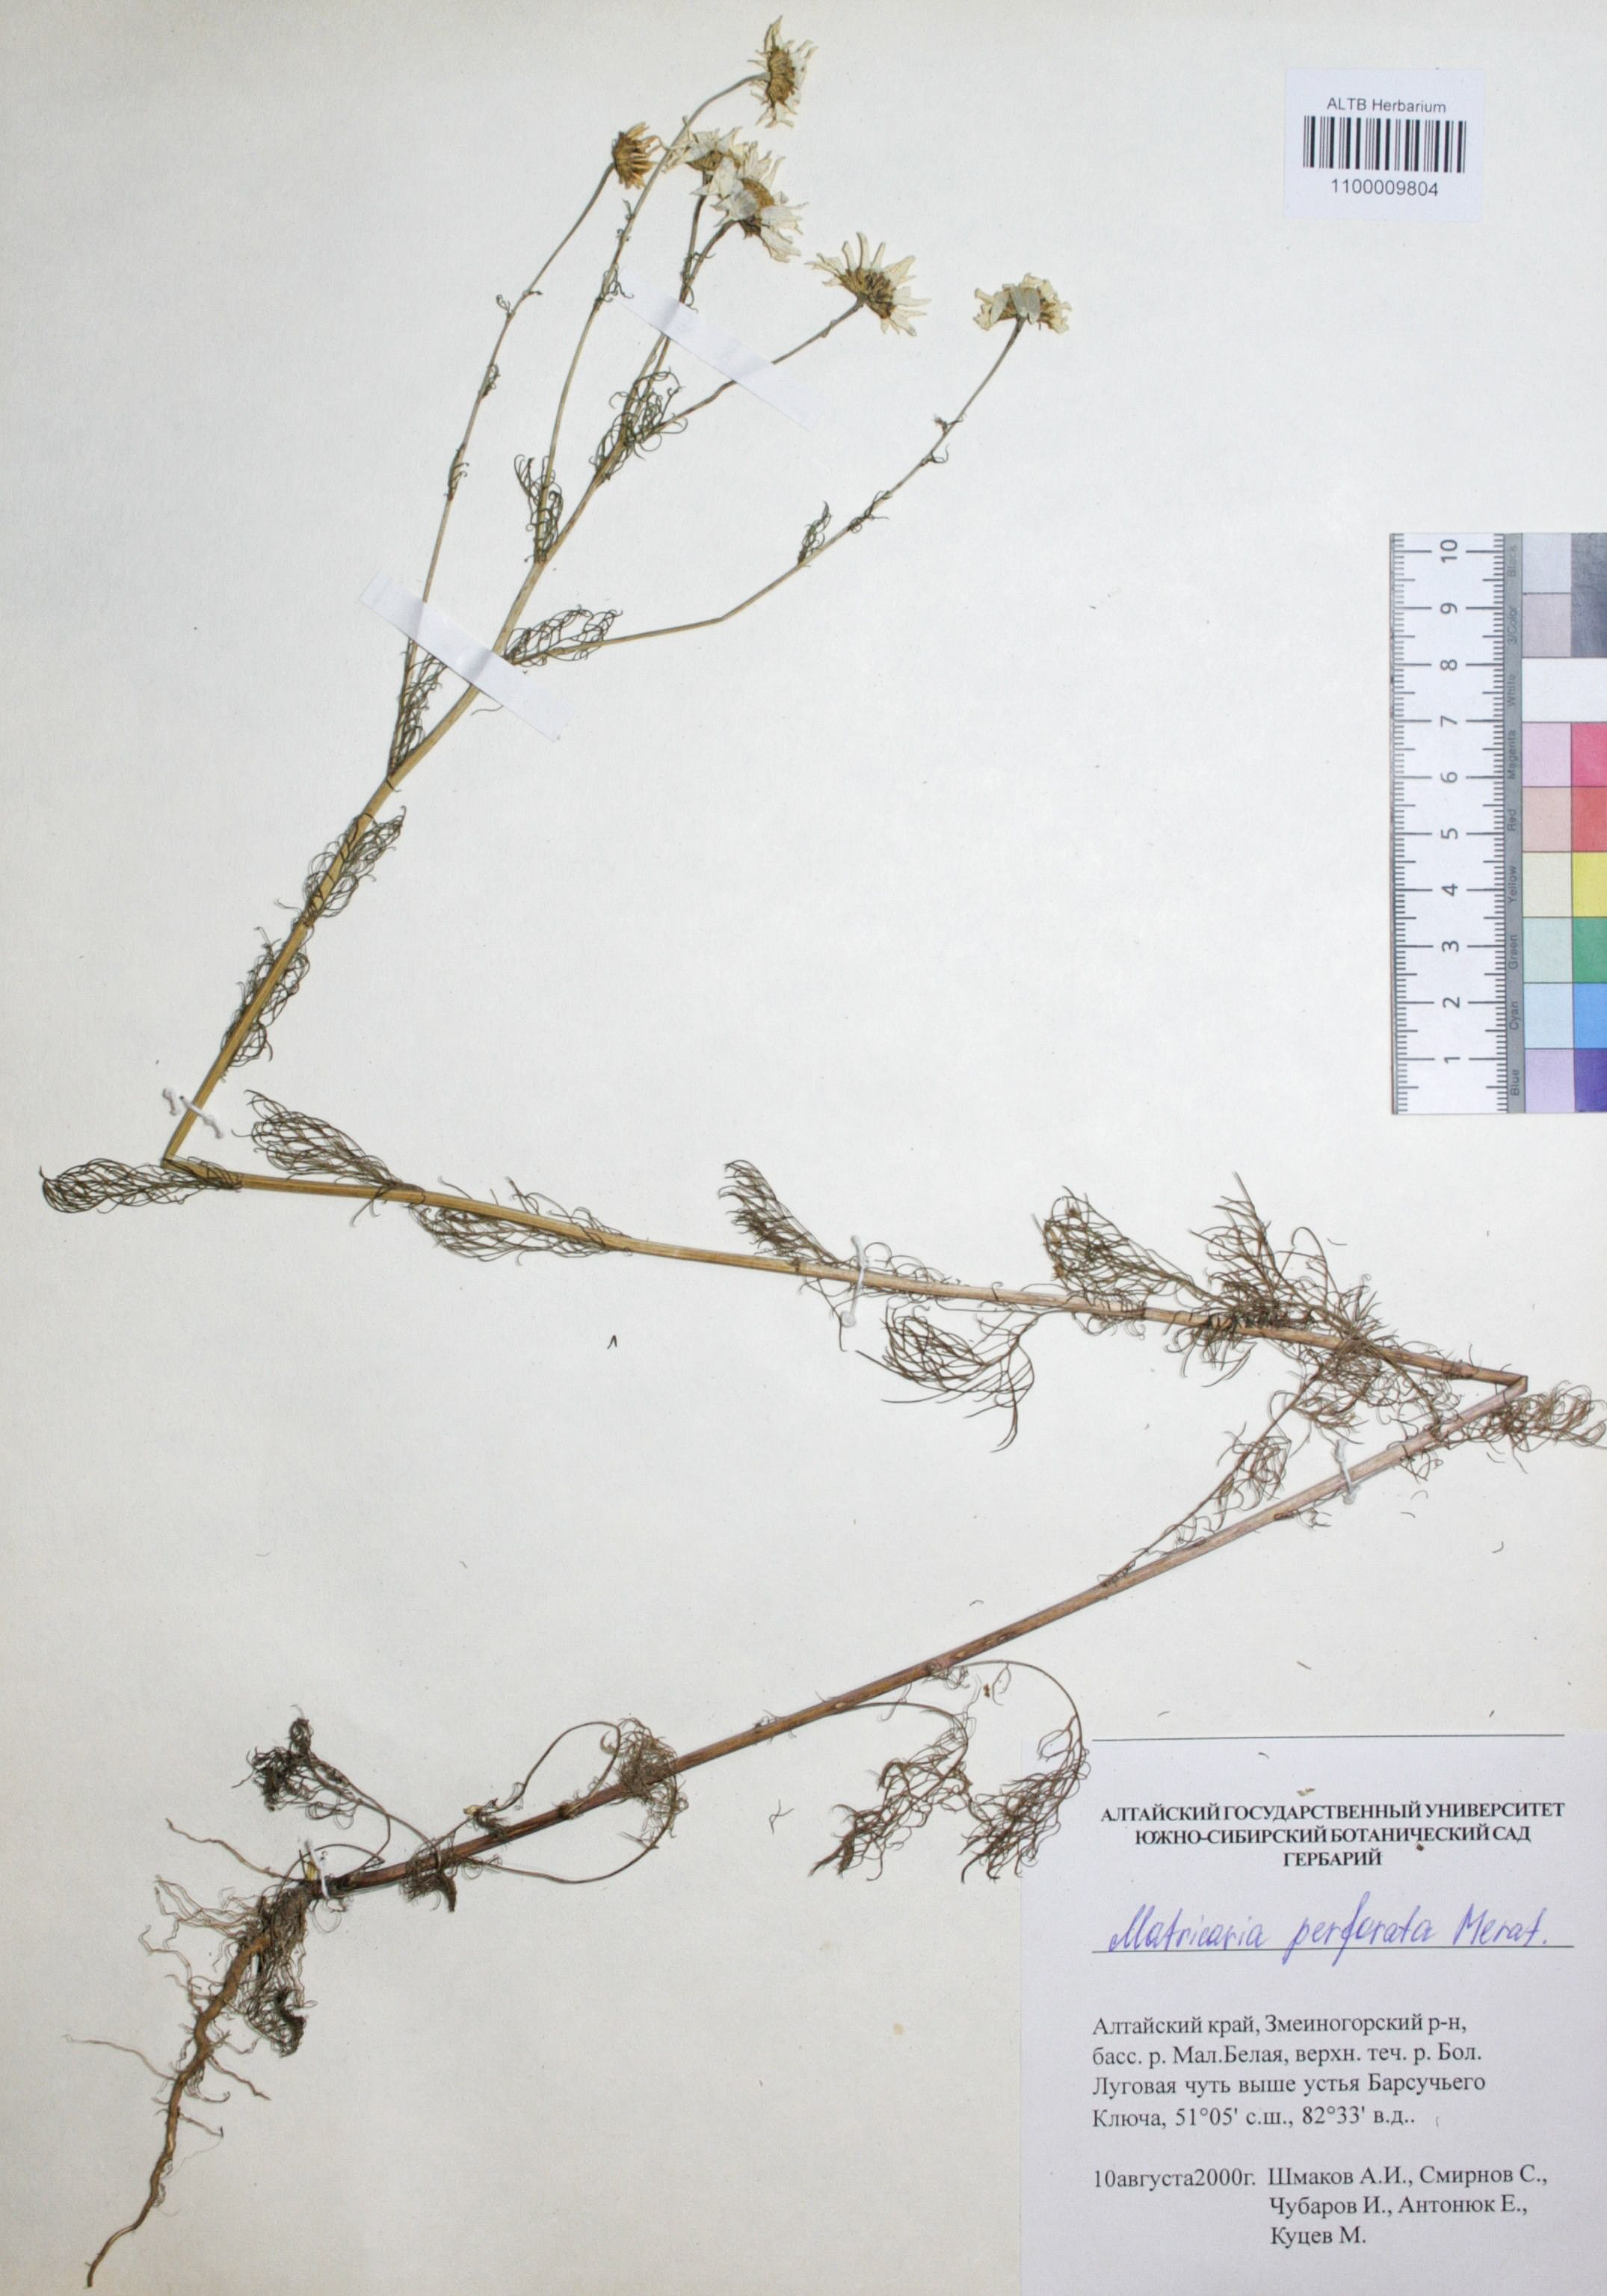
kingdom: Plantae
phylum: Tracheophyta
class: Magnoliopsida
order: Asterales
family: Asteraceae
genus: Tripleurospermum
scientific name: Tripleurospermum inodorum
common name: Scentless mayweed
